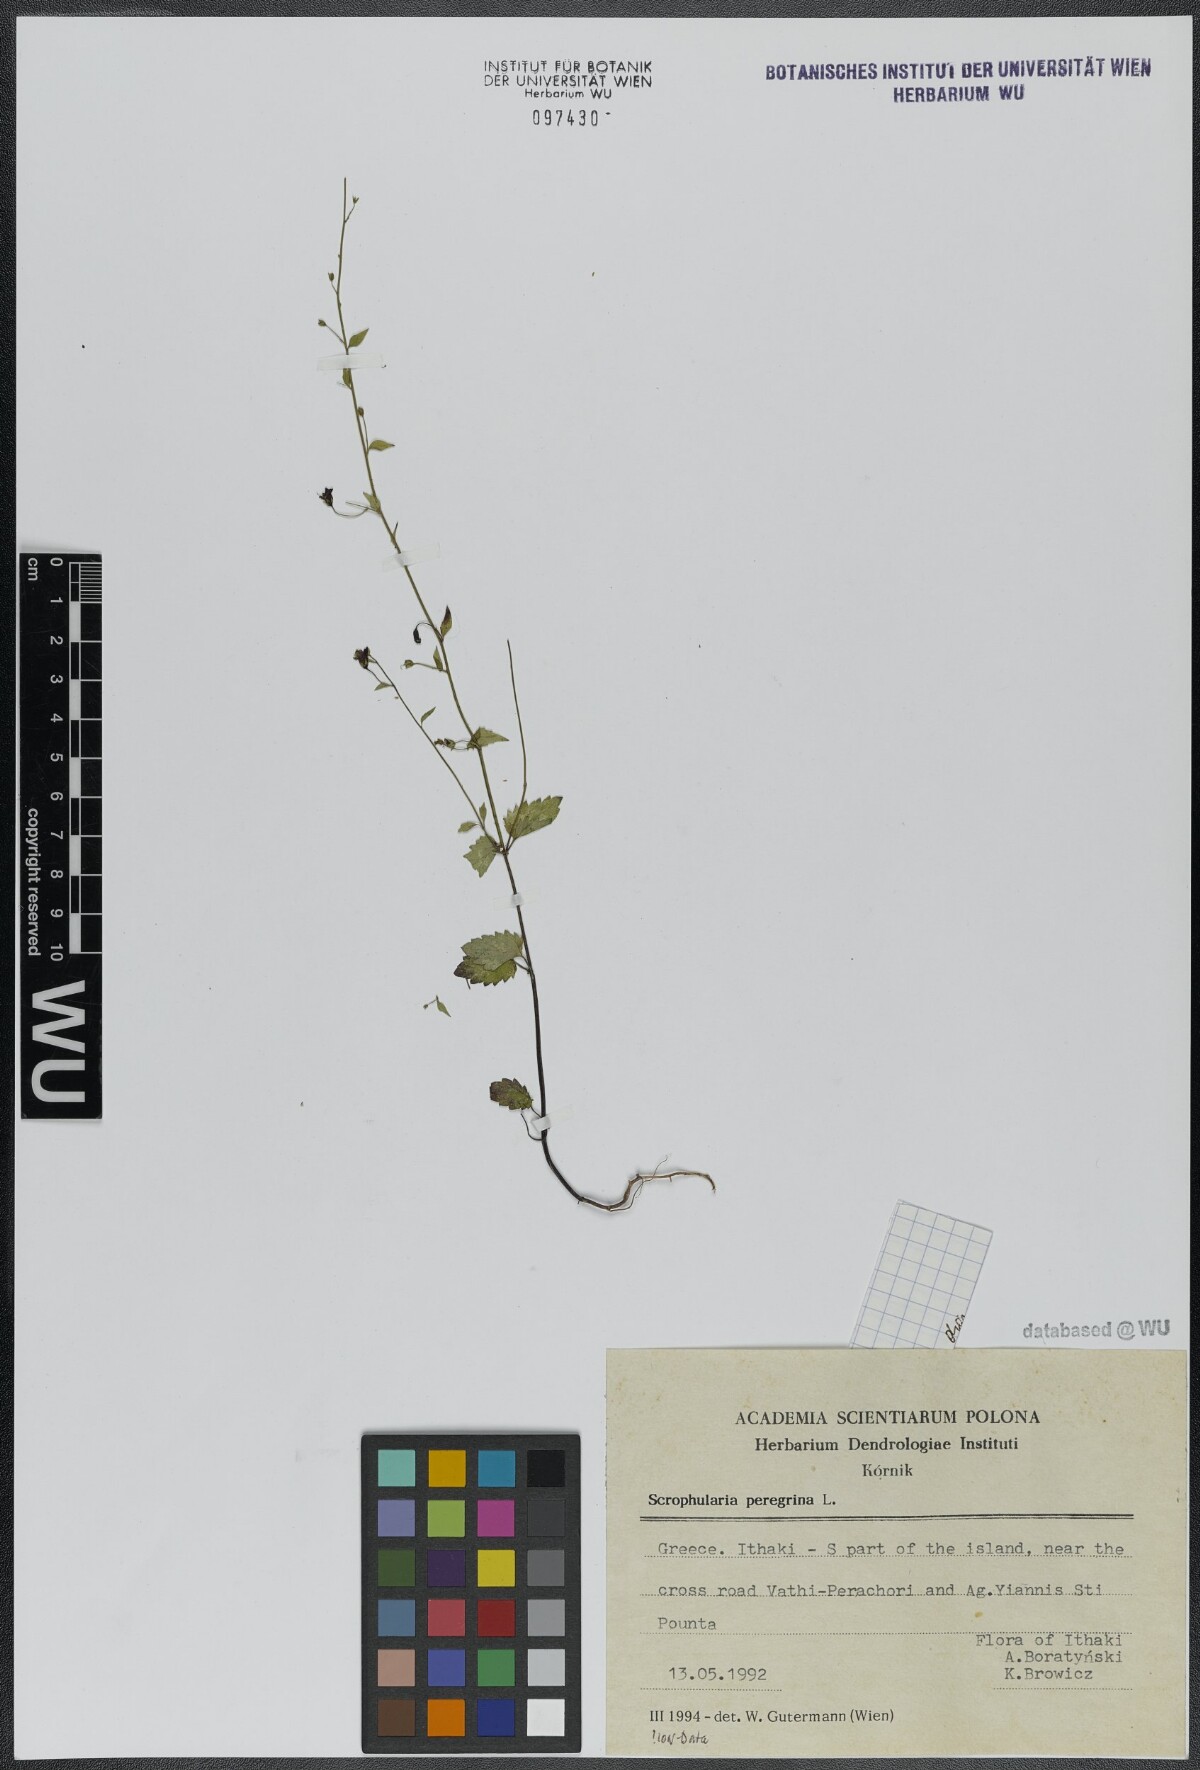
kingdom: Plantae
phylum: Tracheophyta
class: Magnoliopsida
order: Lamiales
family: Scrophulariaceae
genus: Scrophularia
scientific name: Scrophularia peregrina
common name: Mediterranean figwort
